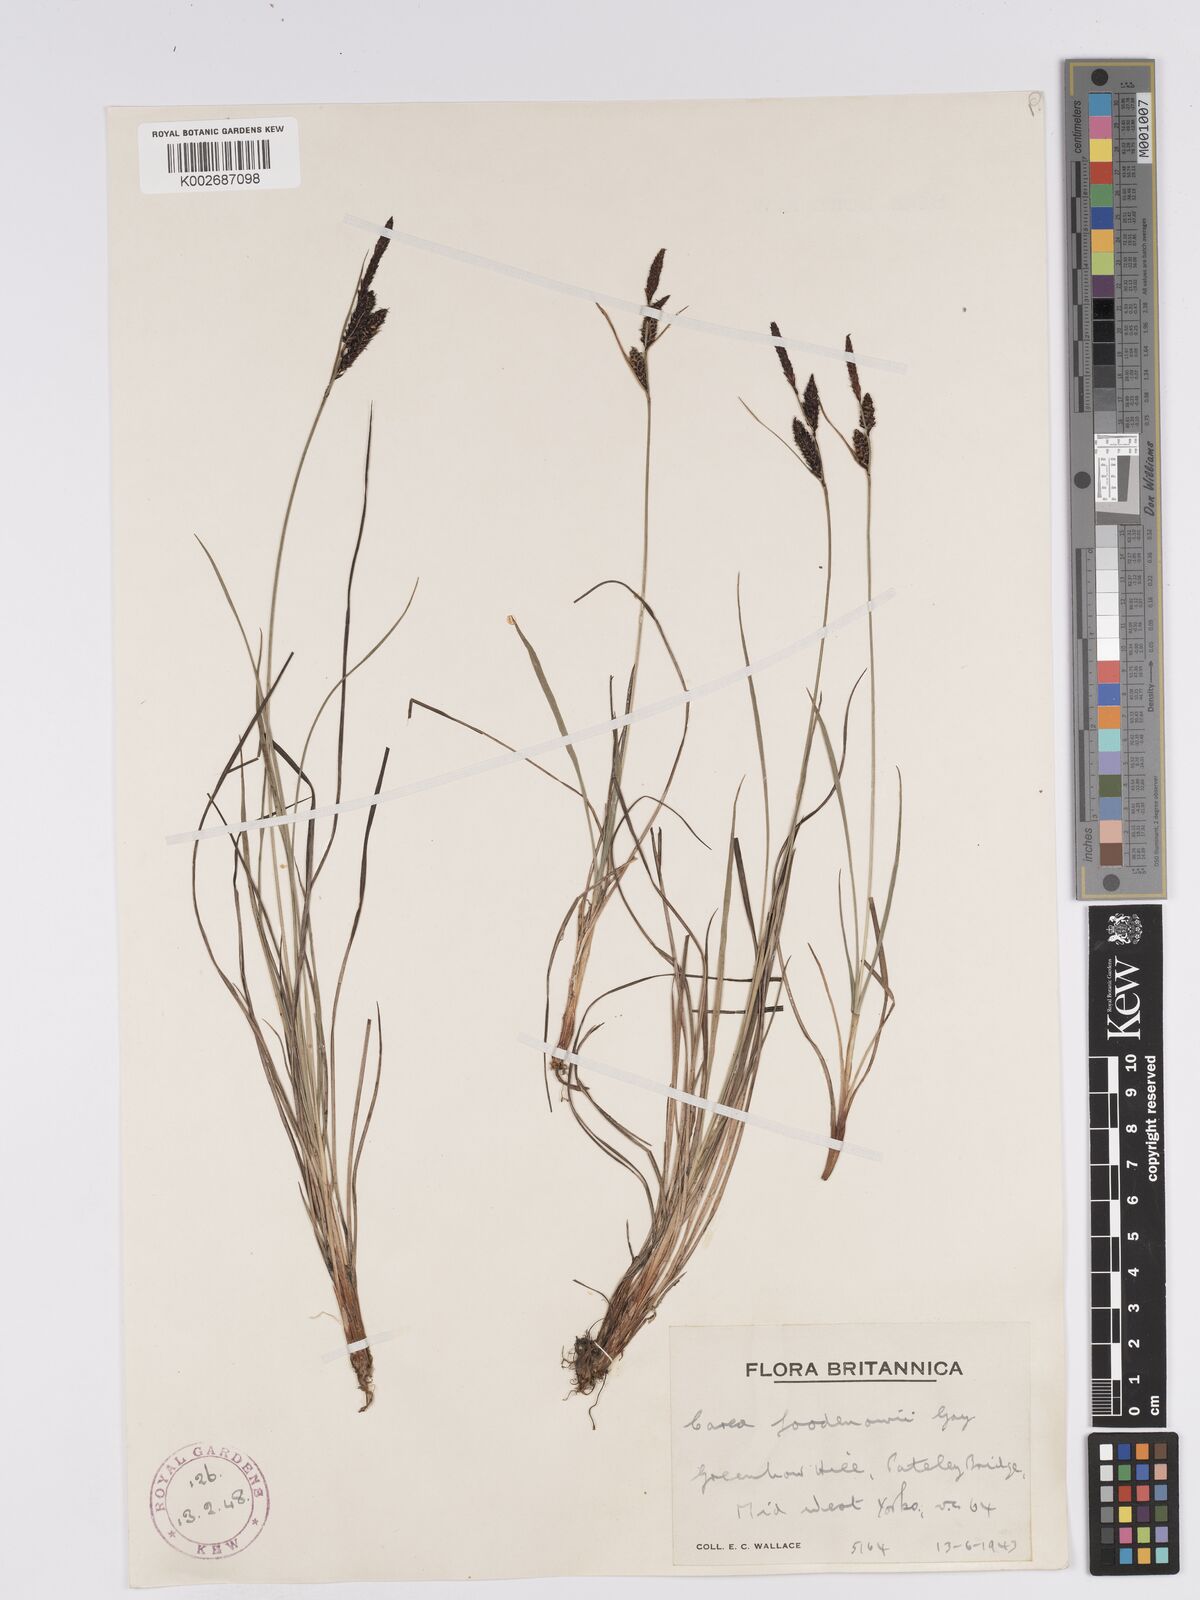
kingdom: Plantae
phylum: Tracheophyta
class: Liliopsida
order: Poales
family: Cyperaceae
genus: Carex
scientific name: Carex nigra
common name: Common sedge
